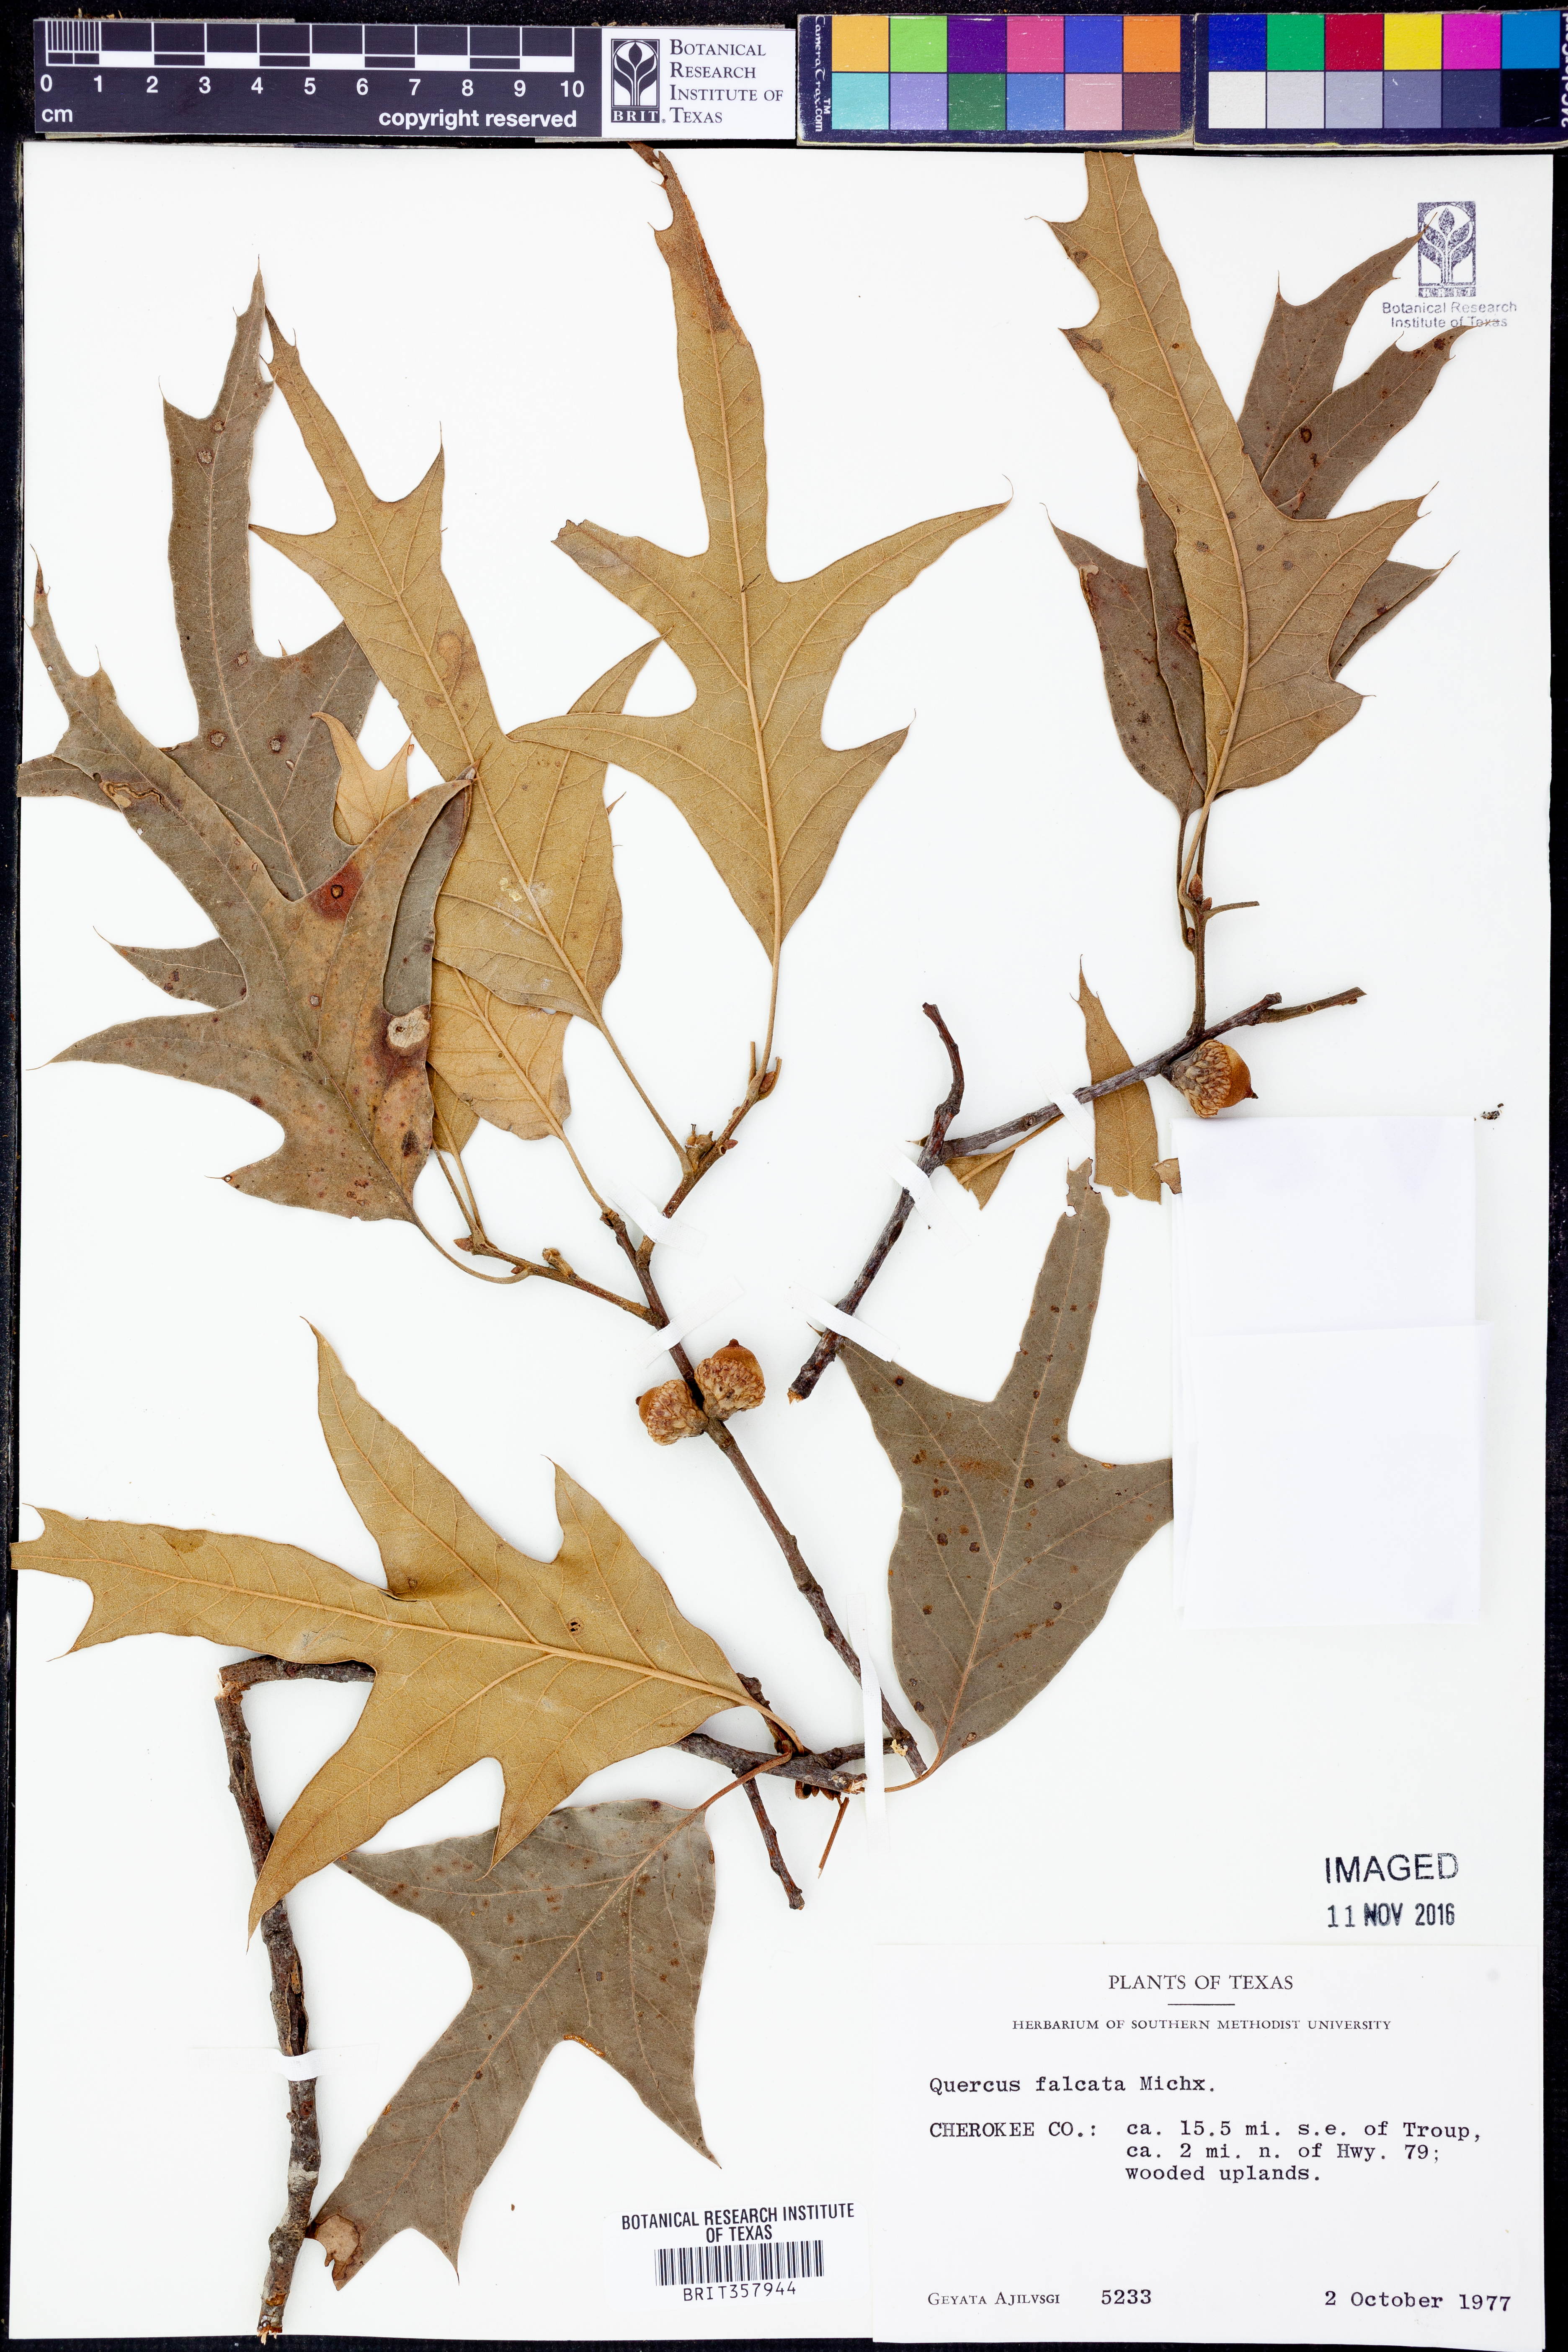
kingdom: Plantae
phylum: Tracheophyta
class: Magnoliopsida
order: Fagales
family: Fagaceae
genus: Quercus
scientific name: Quercus falcata
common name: Southern red oak
